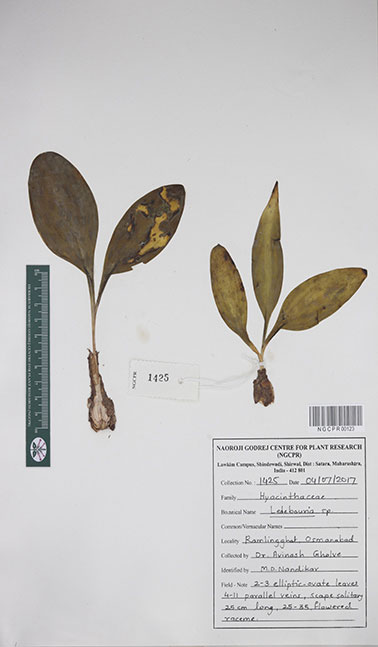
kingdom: Plantae
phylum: Tracheophyta
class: Liliopsida
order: Asparagales
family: Asparagaceae
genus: Ledebouria
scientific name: Ledebouria
